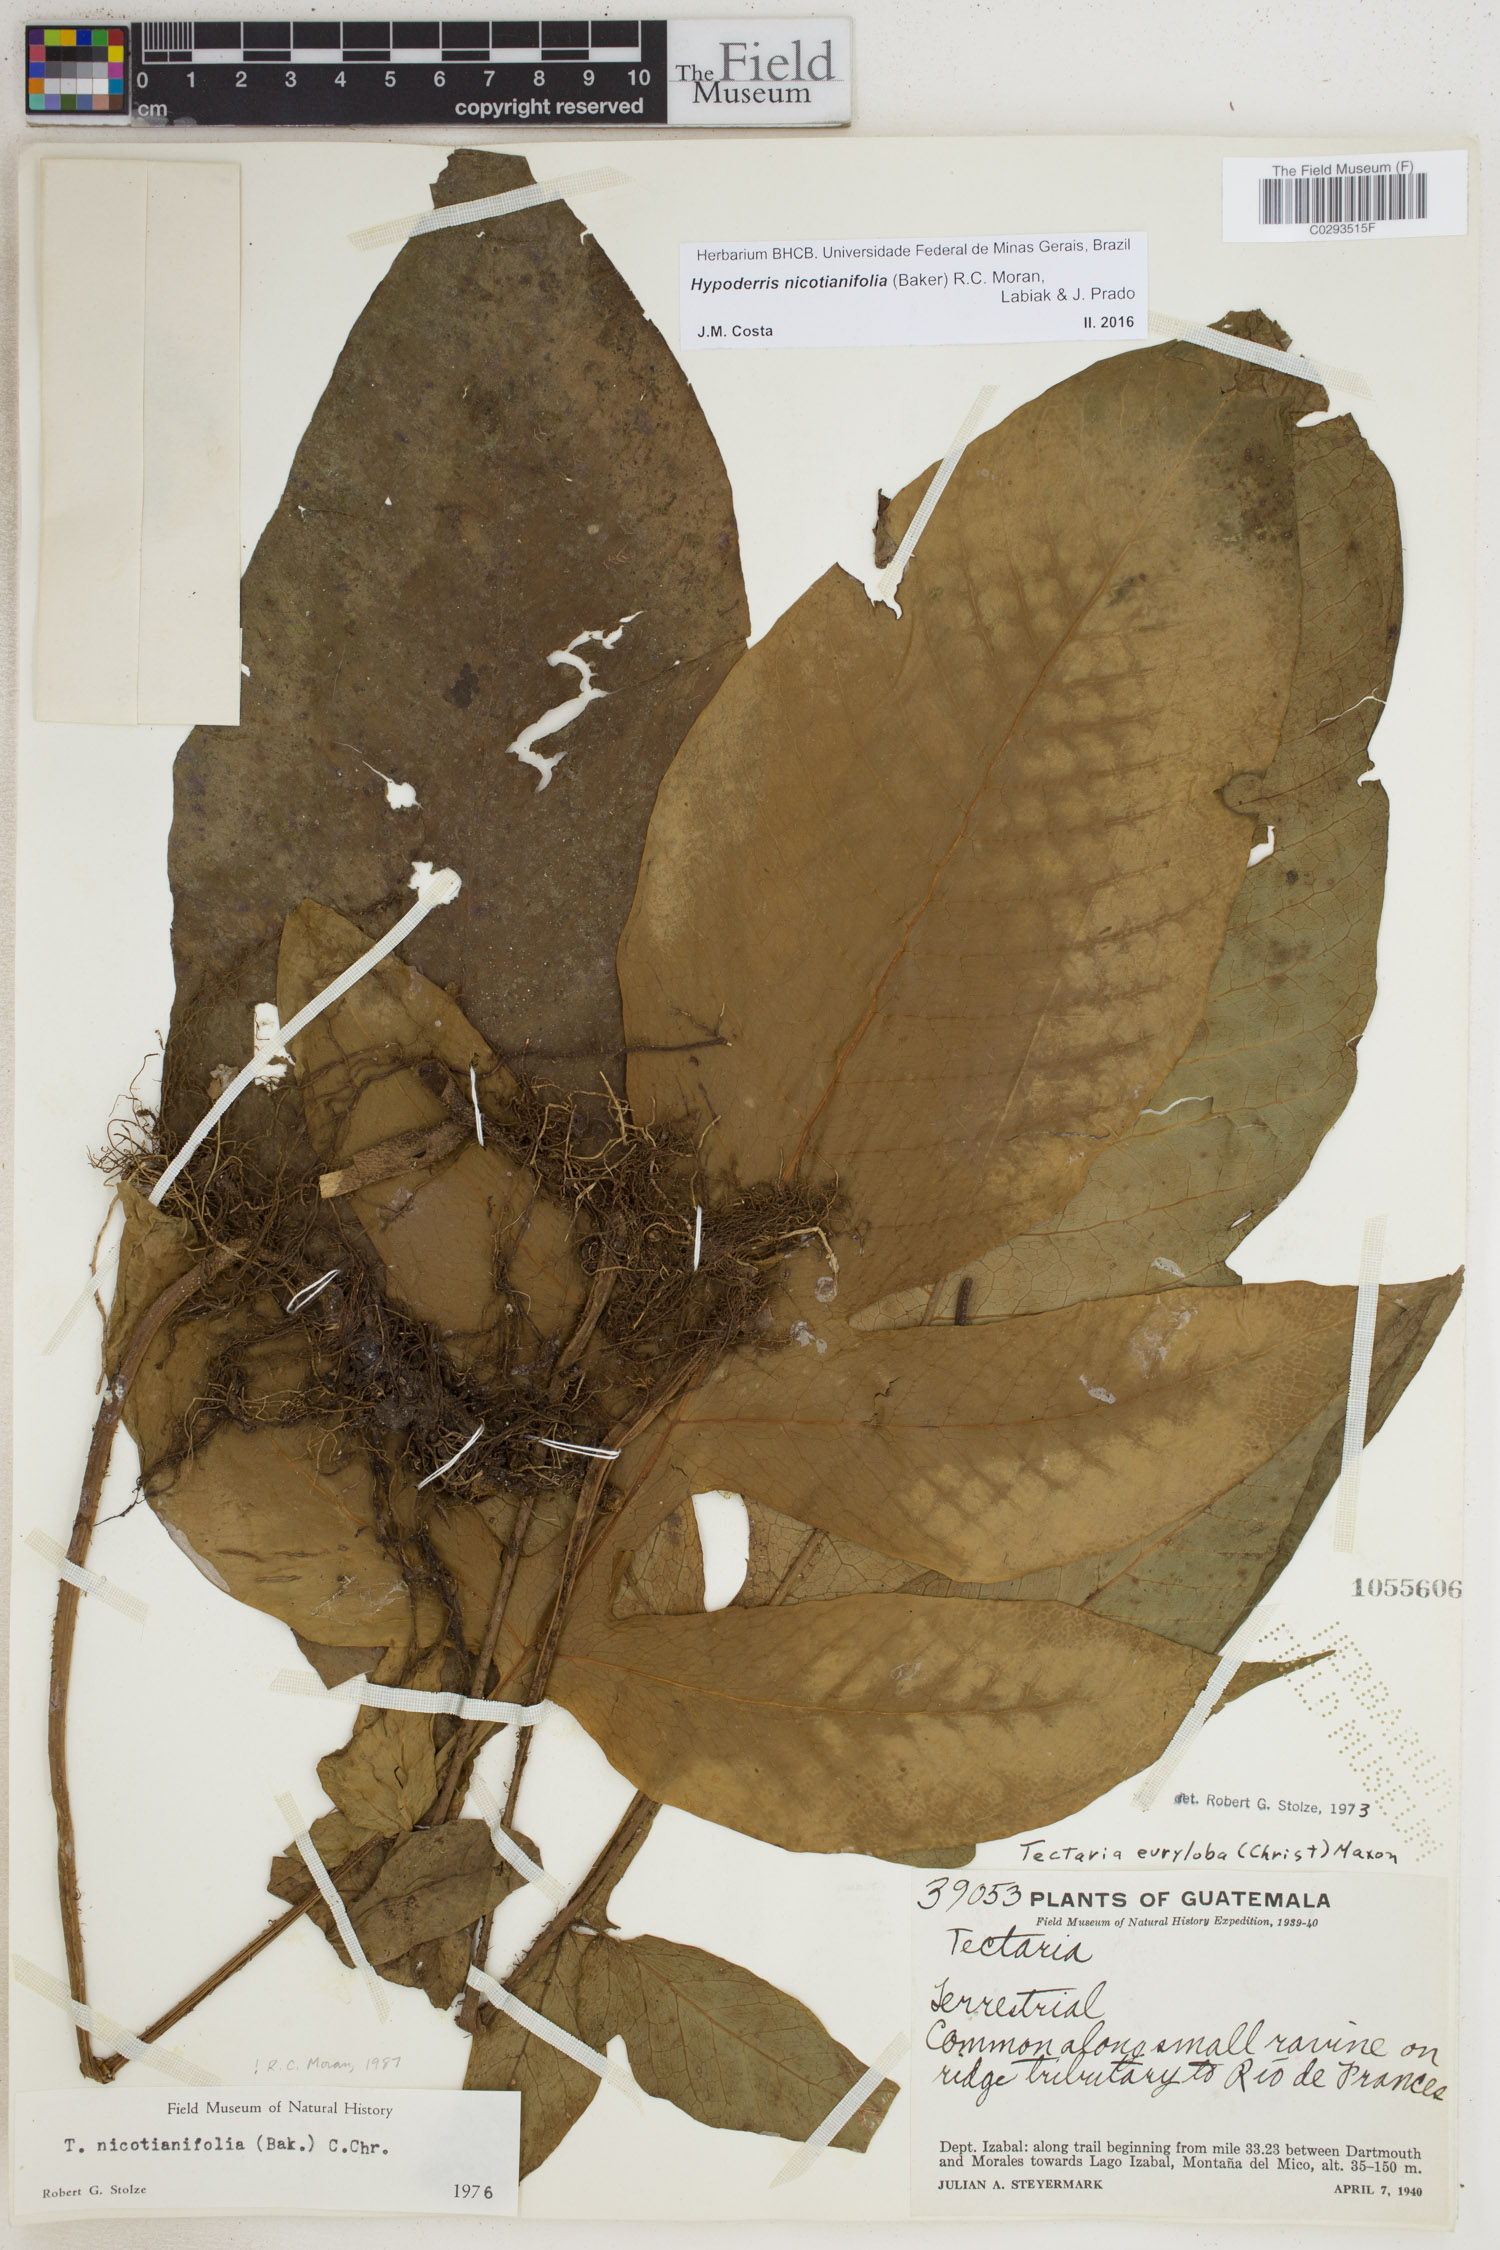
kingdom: Plantae
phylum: Tracheophyta
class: Polypodiopsida
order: Polypodiales
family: Tectariaceae
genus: Hypoderris
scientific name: Hypoderris nicotianifolia
